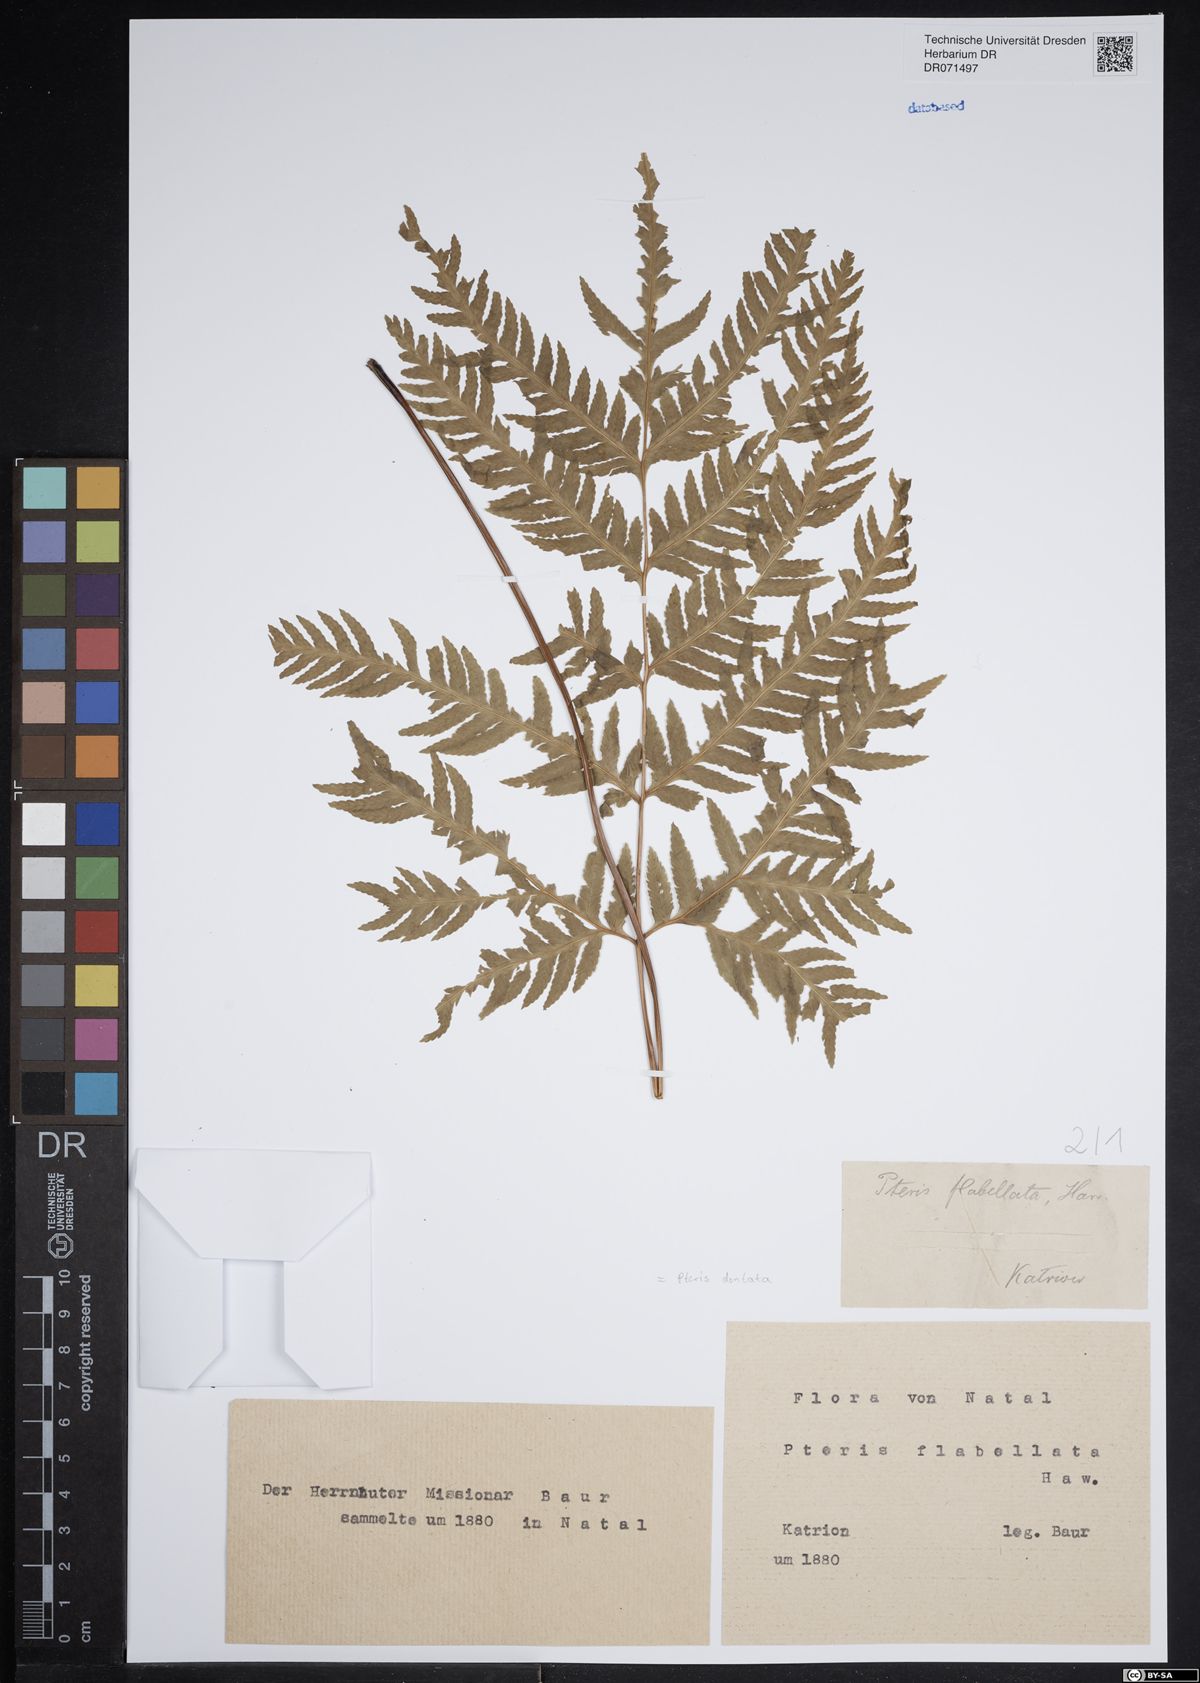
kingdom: Plantae
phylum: Tracheophyta
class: Polypodiopsida
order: Polypodiales
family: Pteridaceae
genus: Pteris
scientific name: Pteris dentata
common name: Toothed brake
